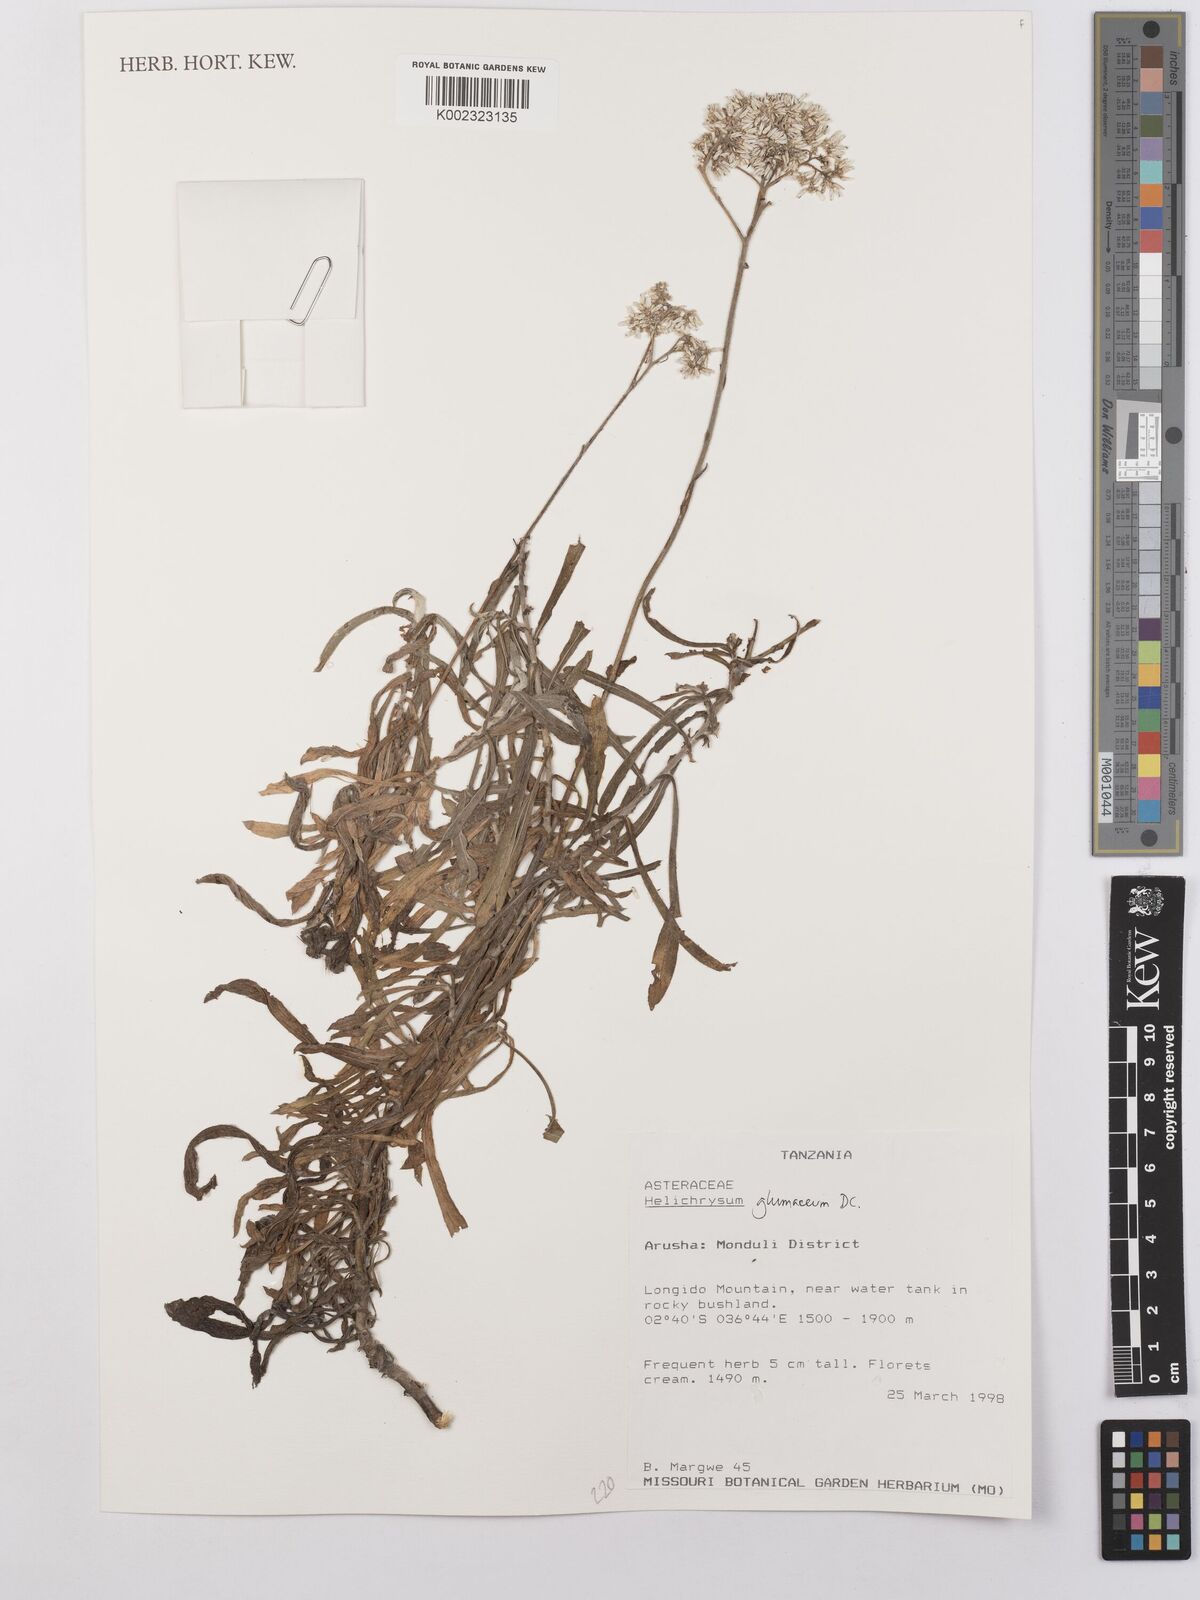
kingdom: Plantae
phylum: Tracheophyta
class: Magnoliopsida
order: Asterales
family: Asteraceae
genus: Helichrysum
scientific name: Helichrysum glumaceum
